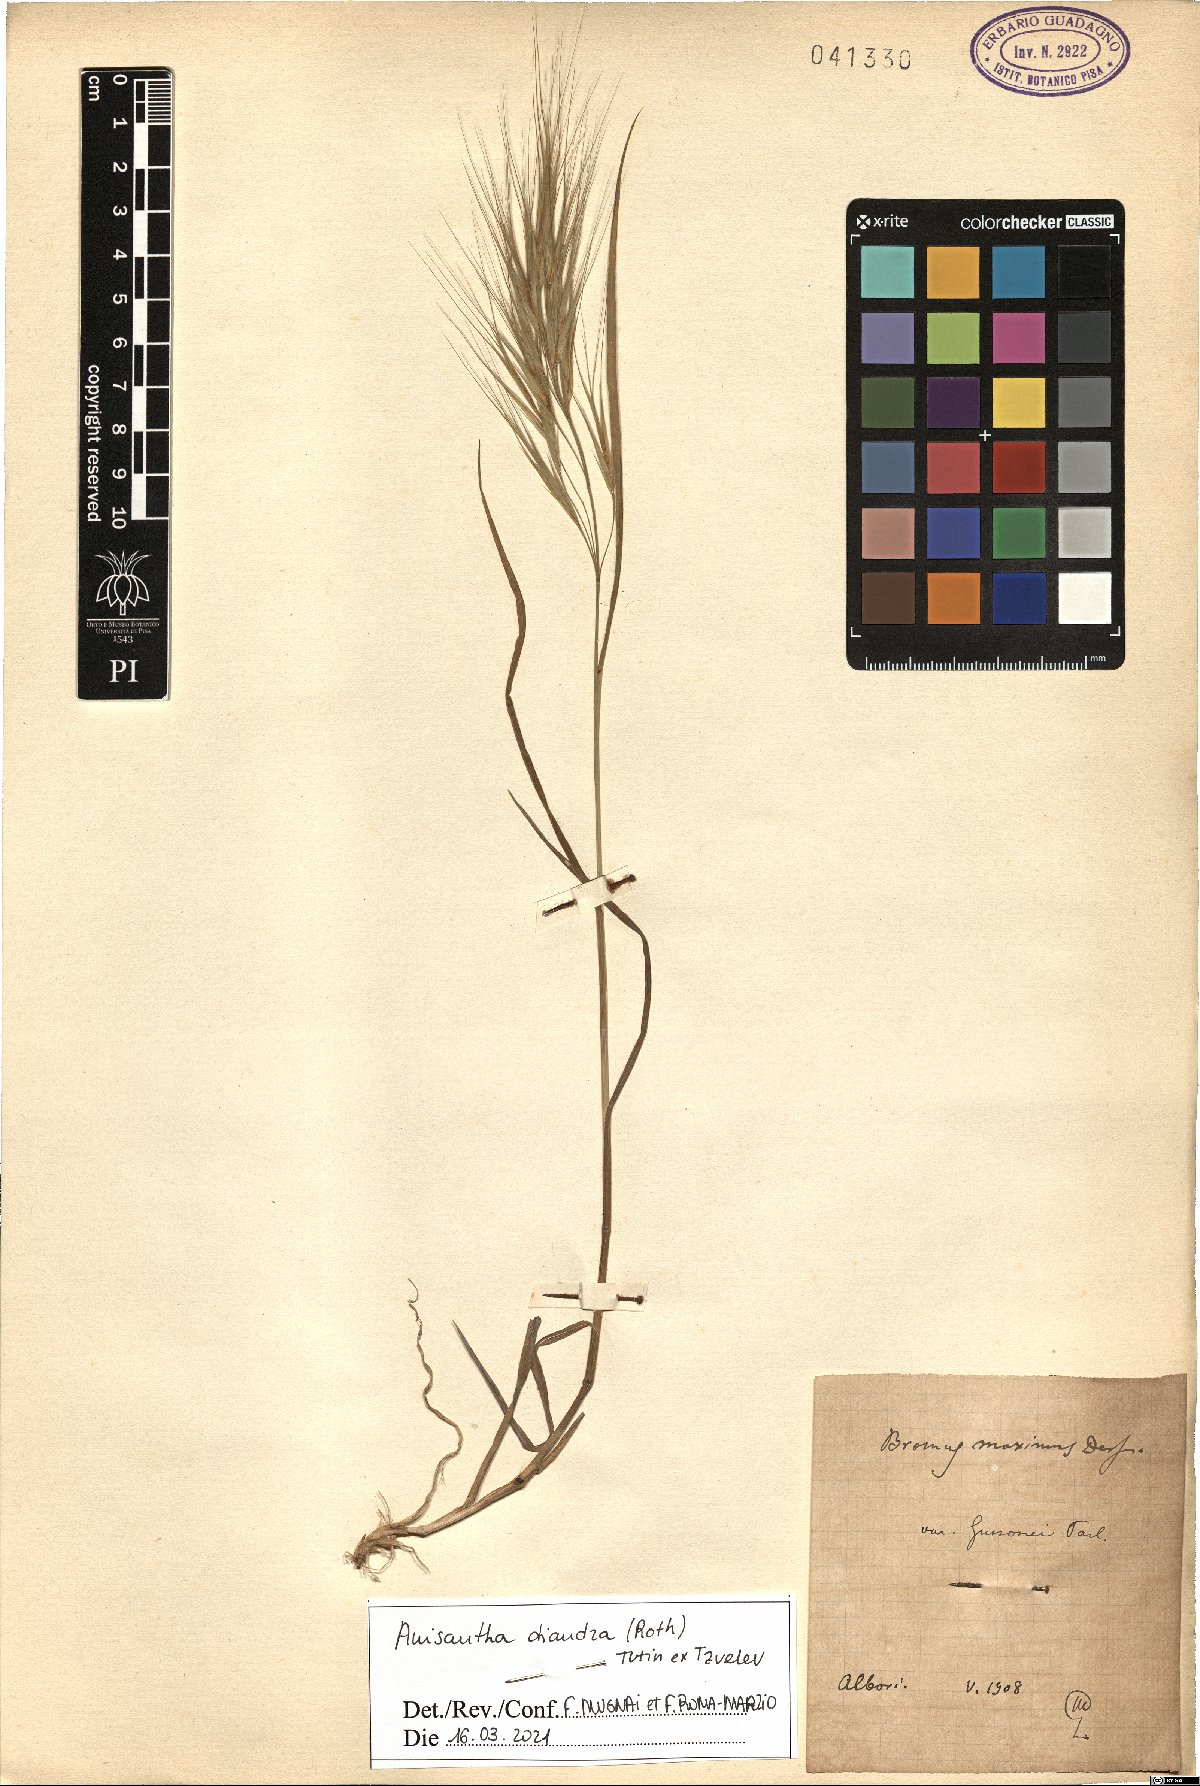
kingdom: Plantae
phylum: Tracheophyta
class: Liliopsida
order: Poales
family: Poaceae
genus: Bromus
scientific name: Bromus diandrus
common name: Ripgut brome
